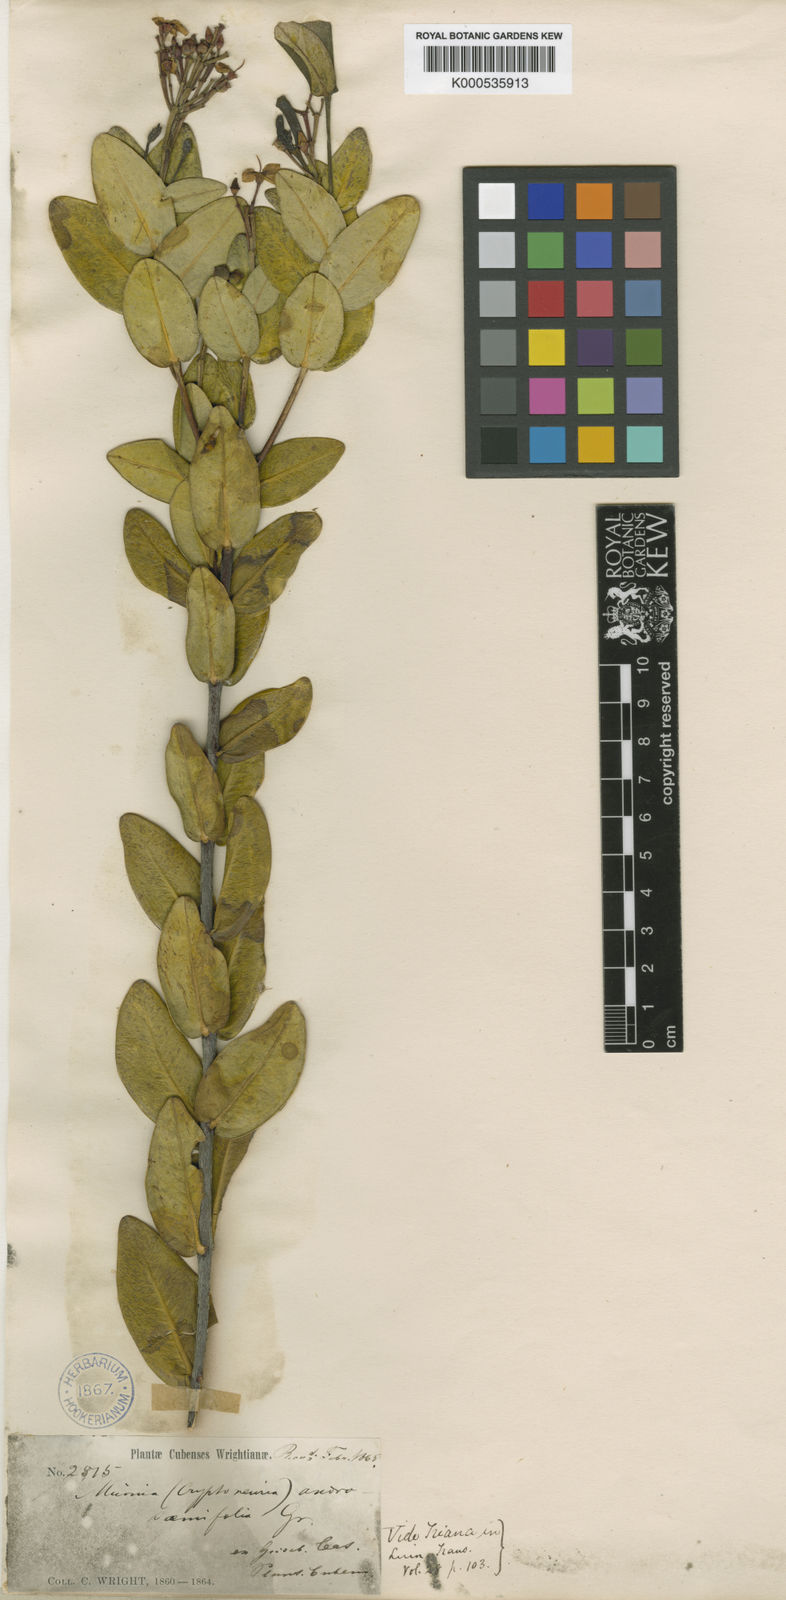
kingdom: Plantae
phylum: Tracheophyta
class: Magnoliopsida
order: Myrtales
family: Melastomataceae
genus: Miconia
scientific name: Miconia androsaemifolia
